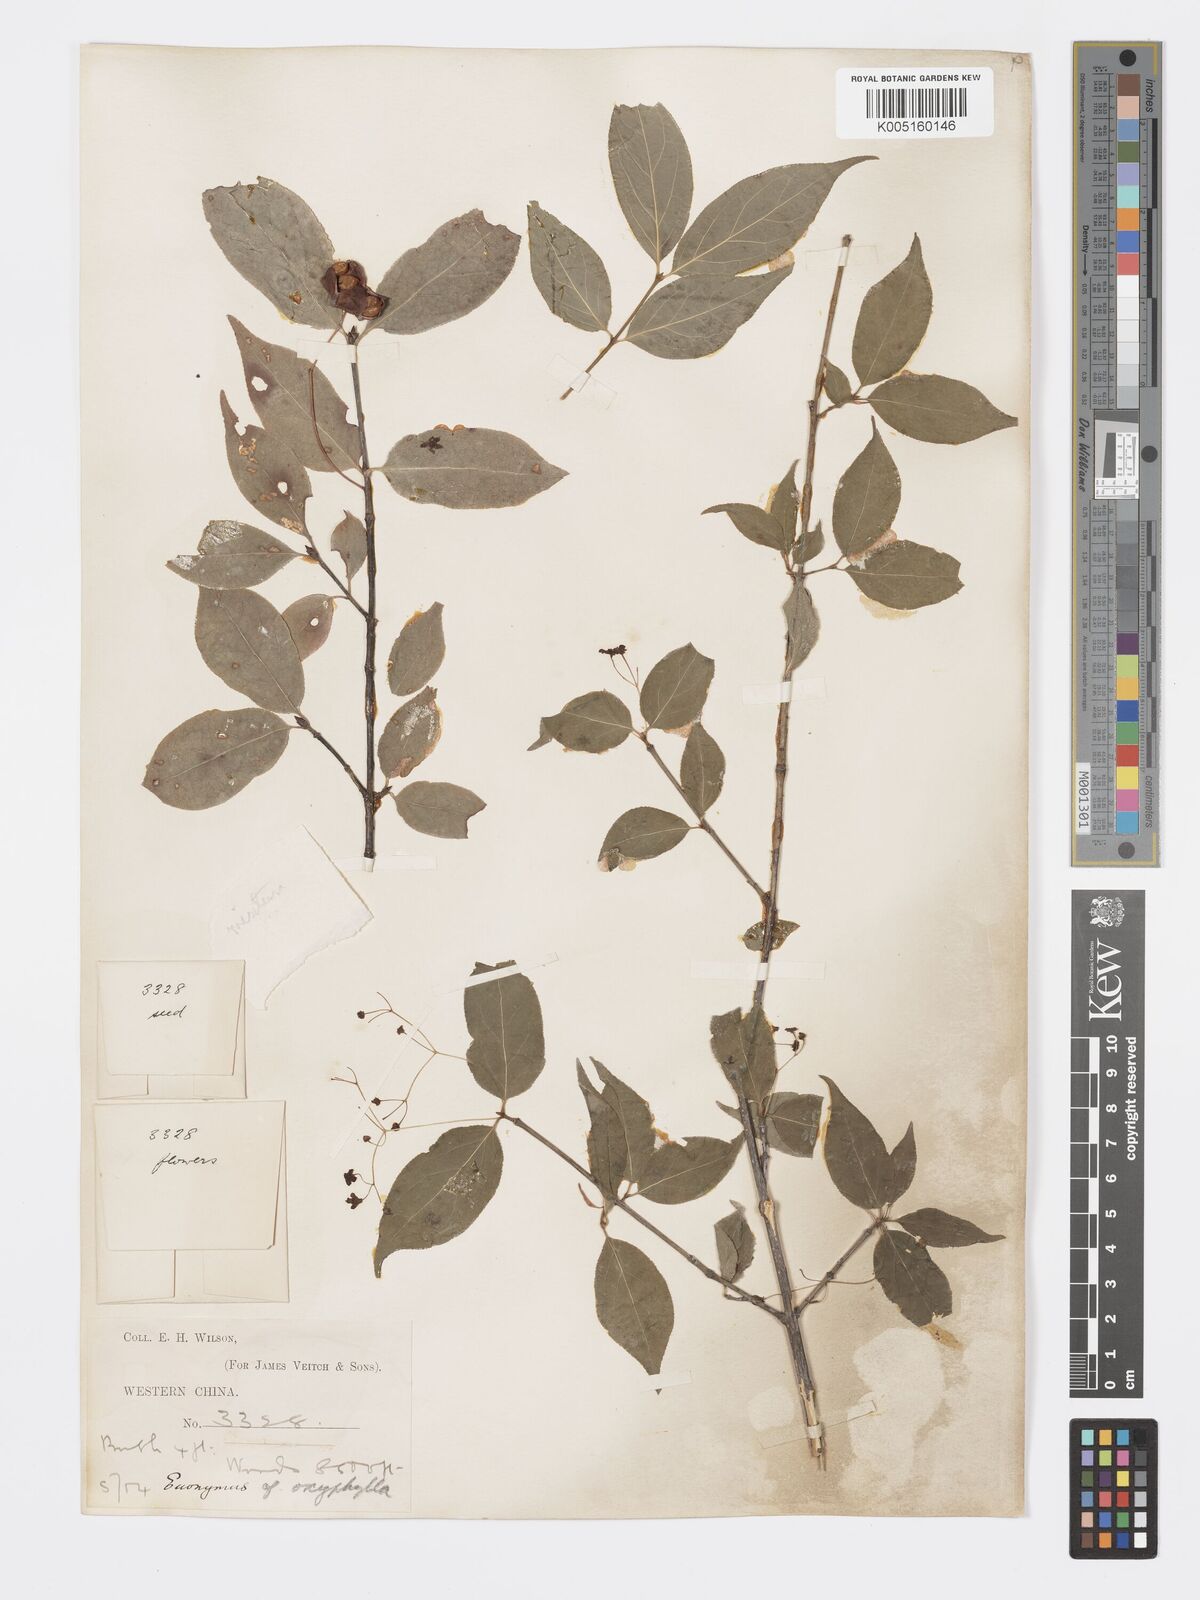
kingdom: Plantae
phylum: Tracheophyta
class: Magnoliopsida
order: Celastrales
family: Celastraceae
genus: Euonymus
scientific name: Euonymus frigidus
